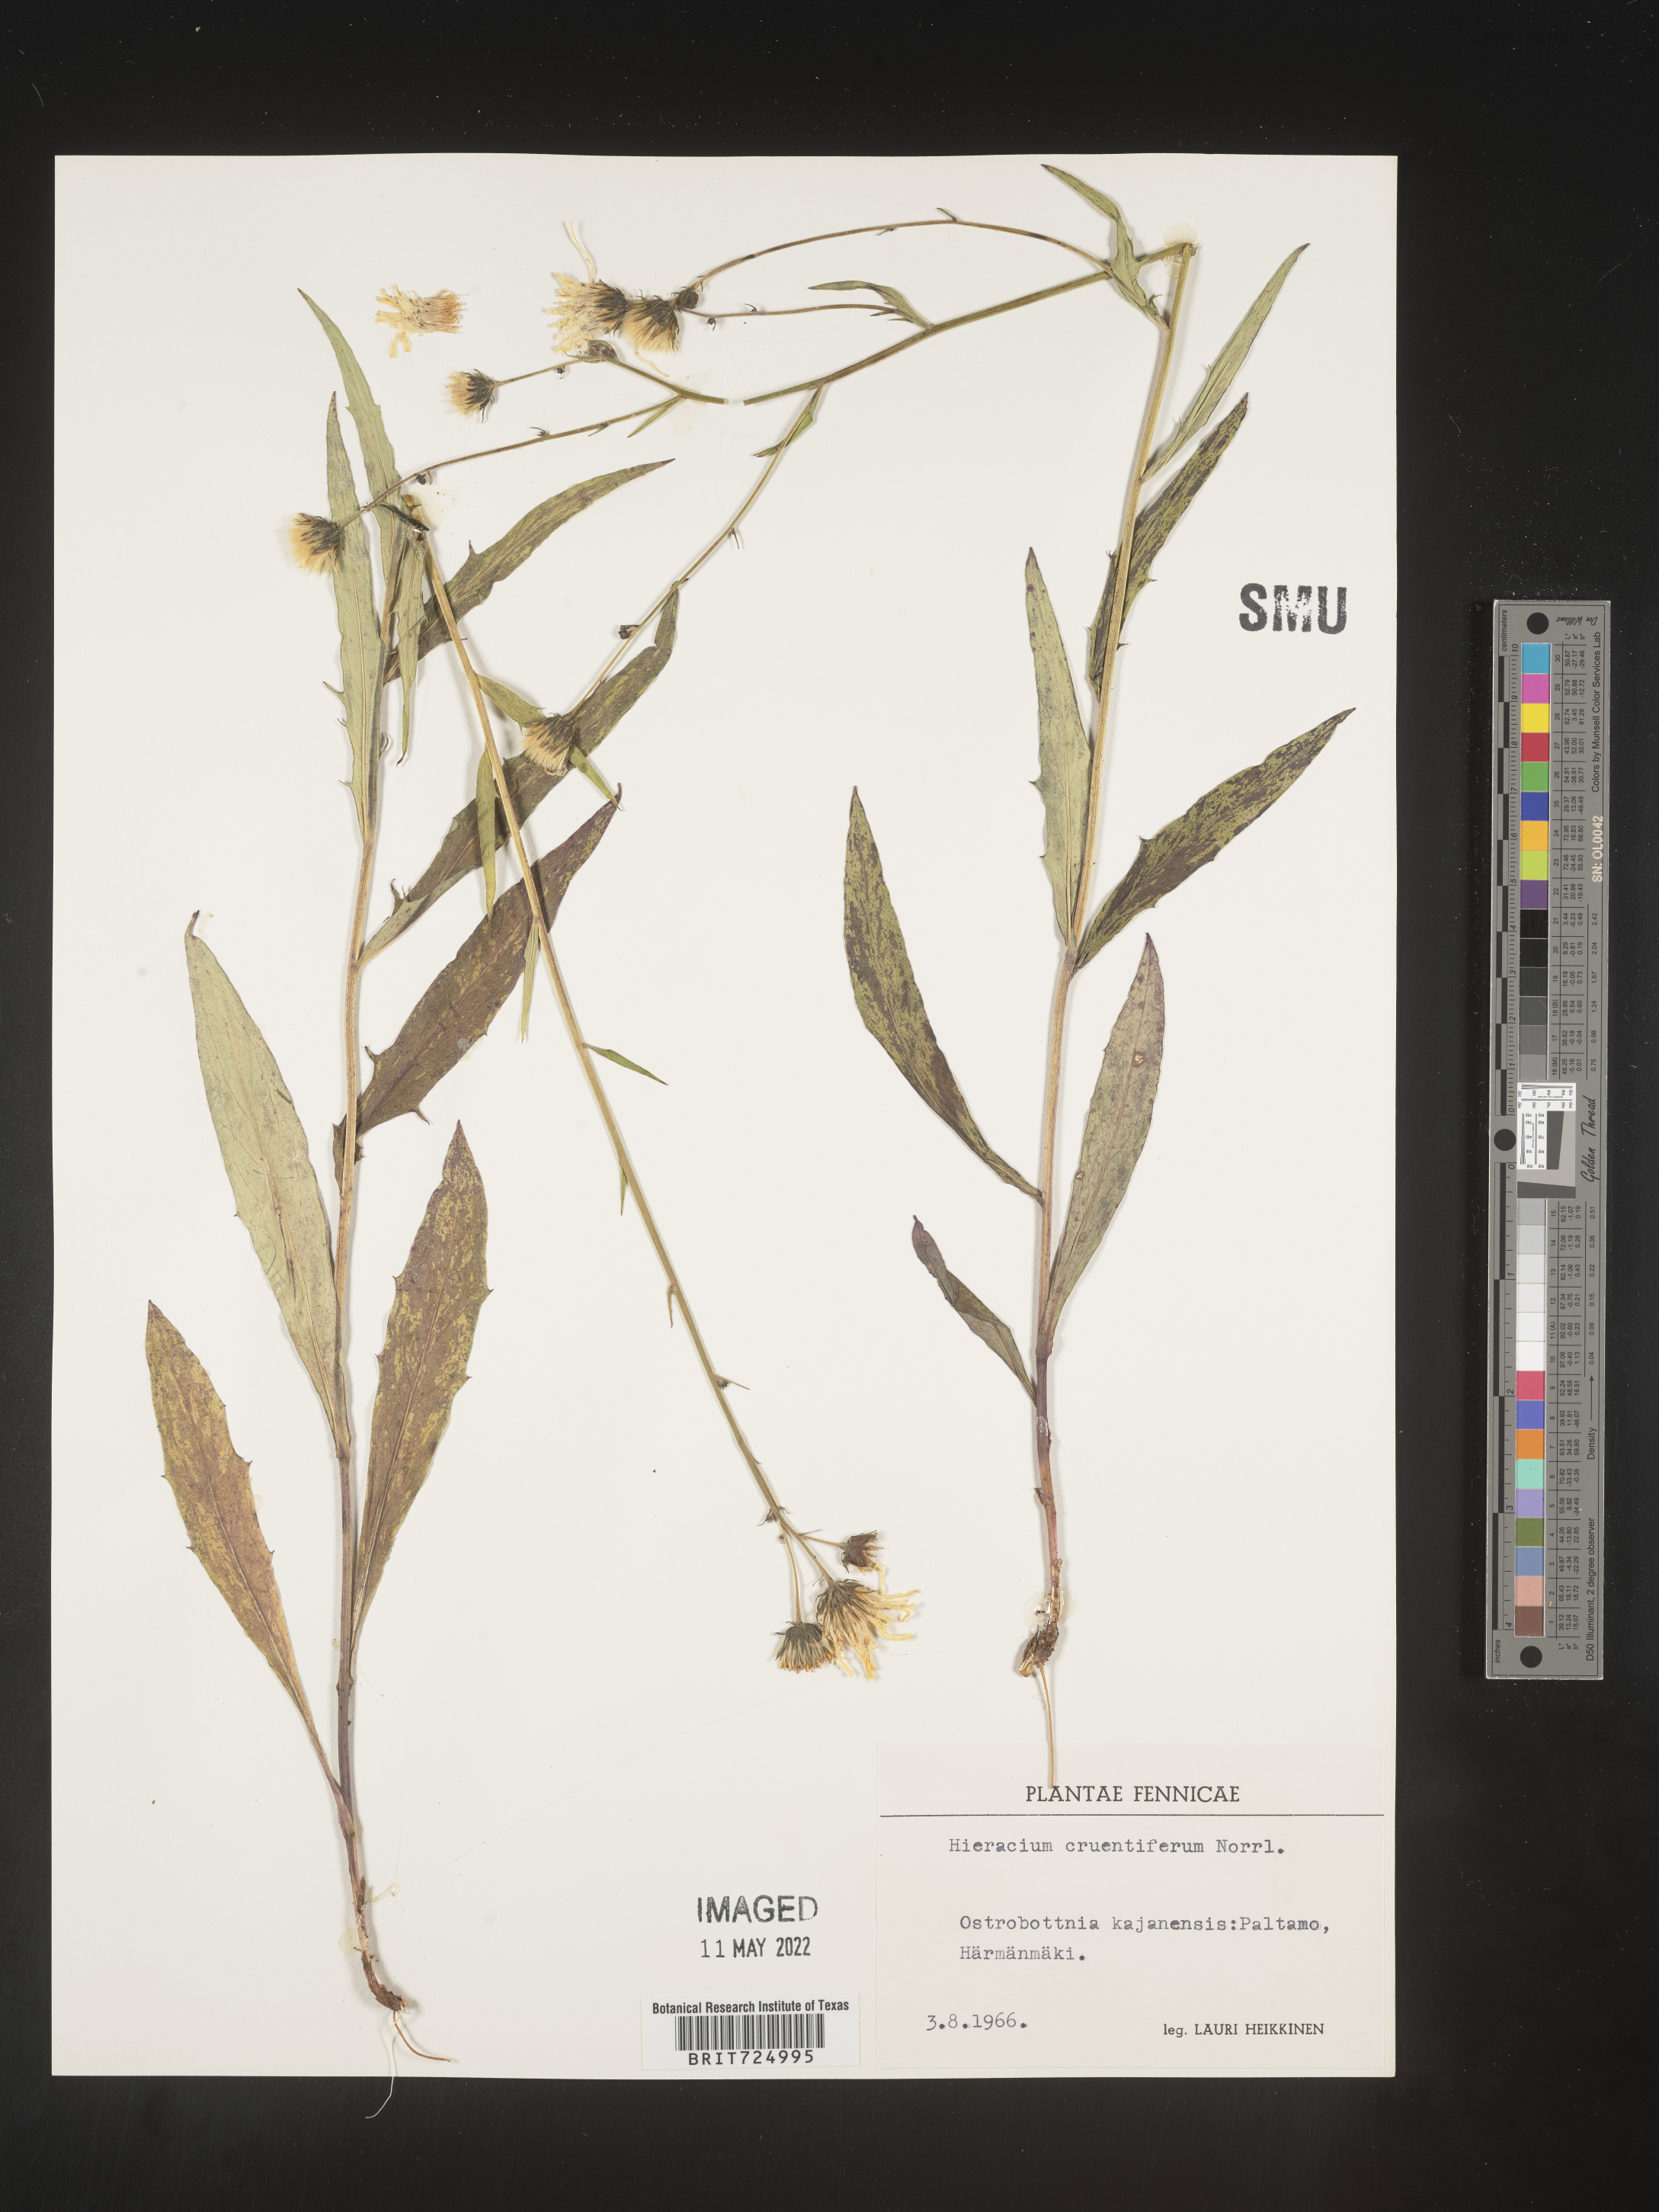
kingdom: Plantae
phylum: Tracheophyta
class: Magnoliopsida
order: Asterales
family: Asteraceae
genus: Hieracium
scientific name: Hieracium
